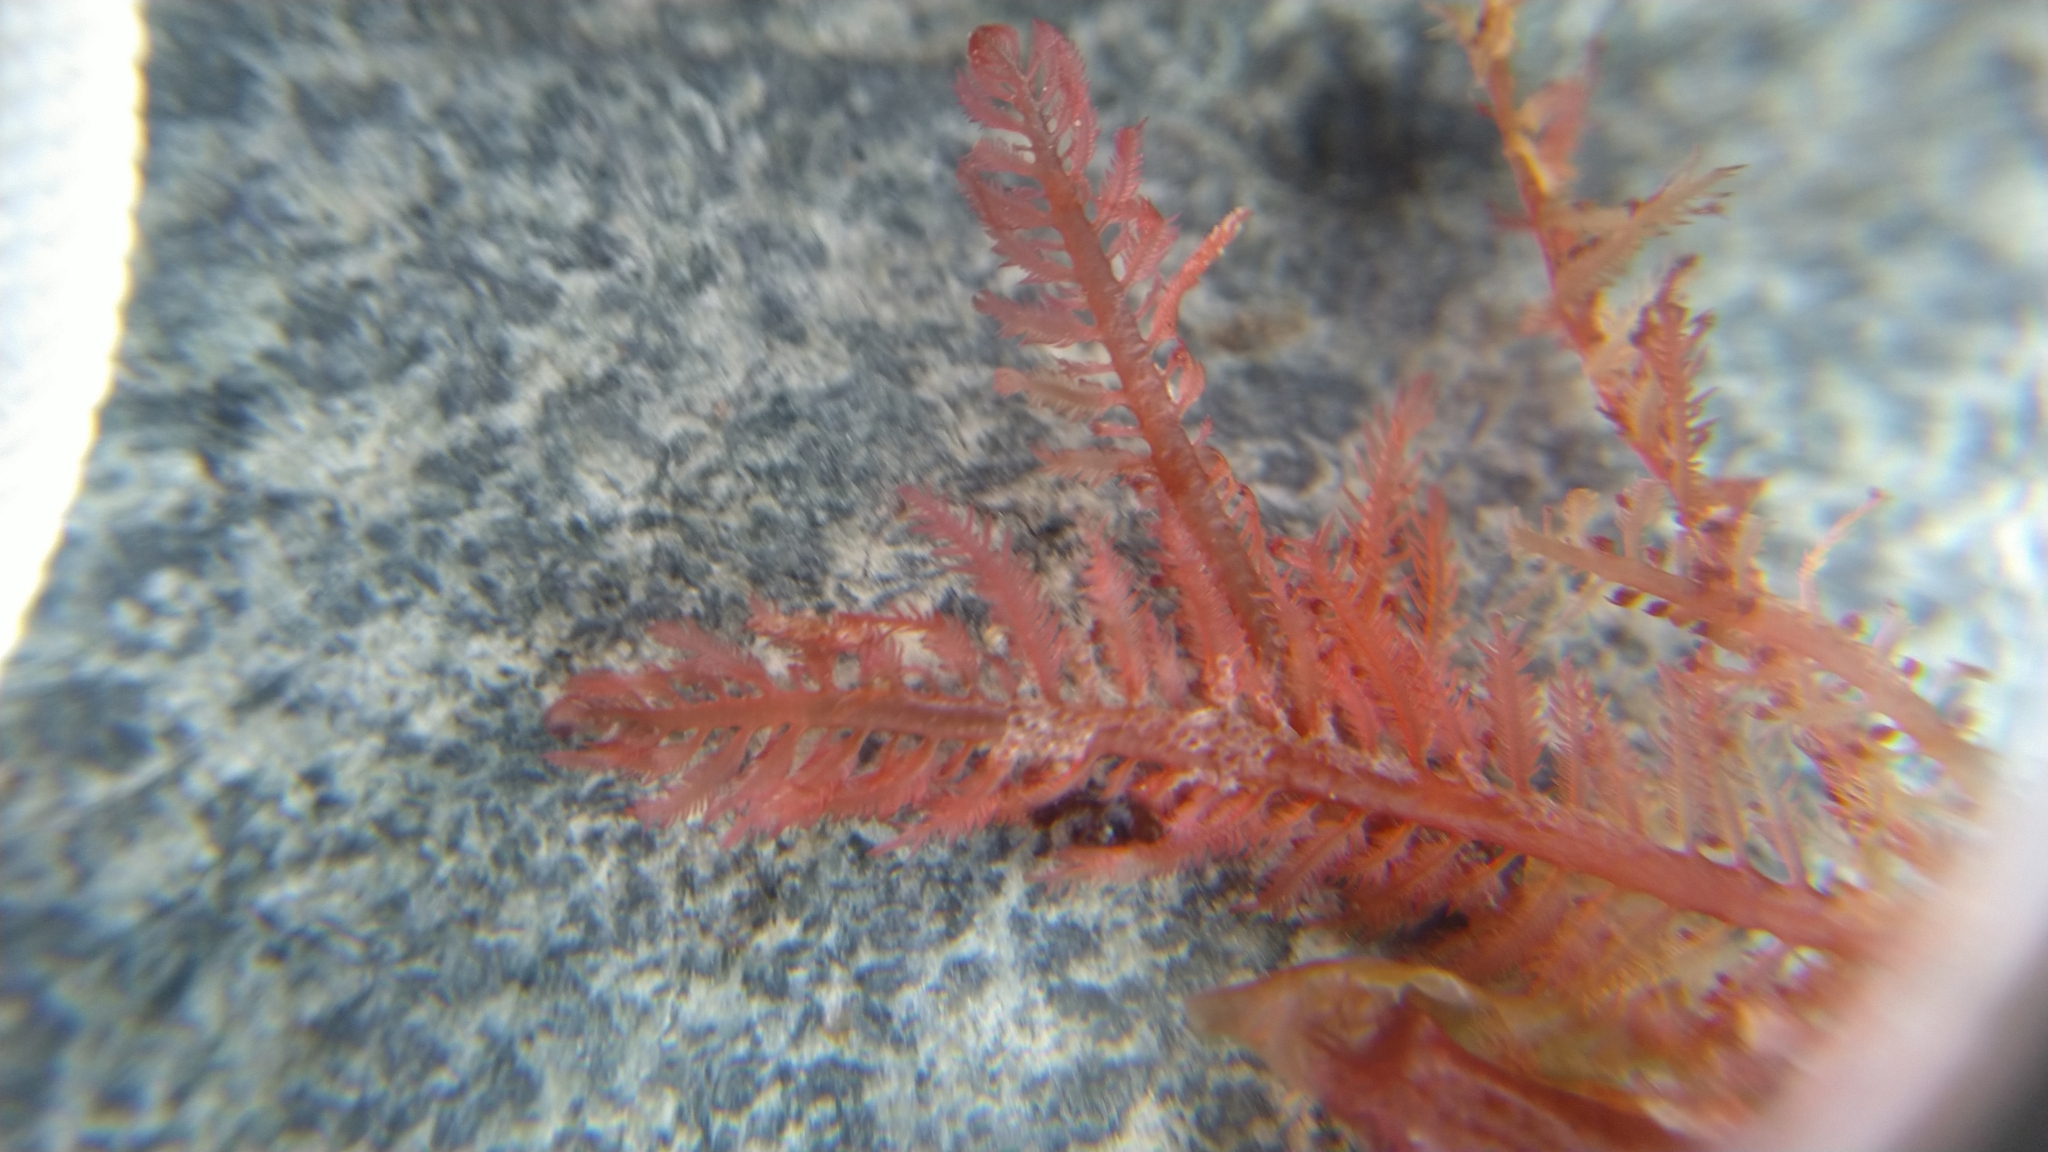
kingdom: Plantae
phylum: Rhodophyta
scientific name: Rhodophyta
